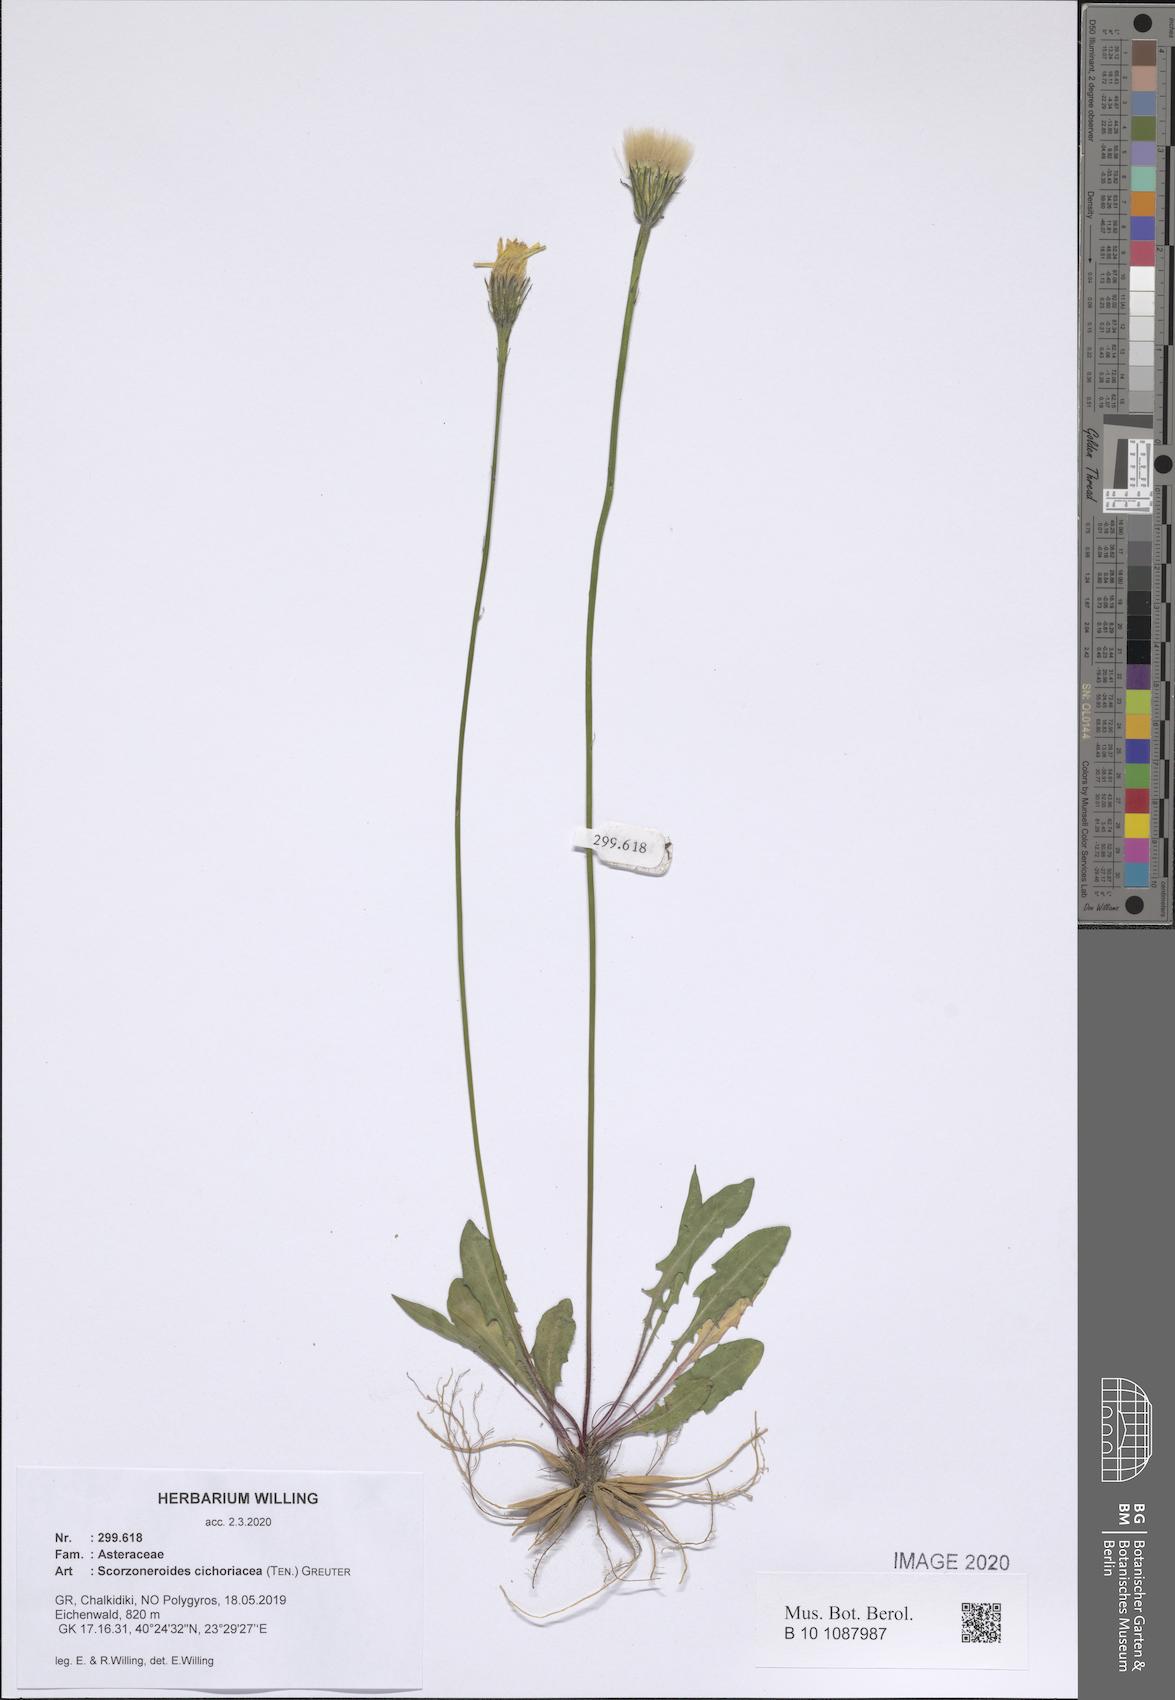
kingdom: Plantae
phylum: Tracheophyta
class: Magnoliopsida
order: Asterales
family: Asteraceae
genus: Scorzoneroides
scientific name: Scorzoneroides cichoriacea
